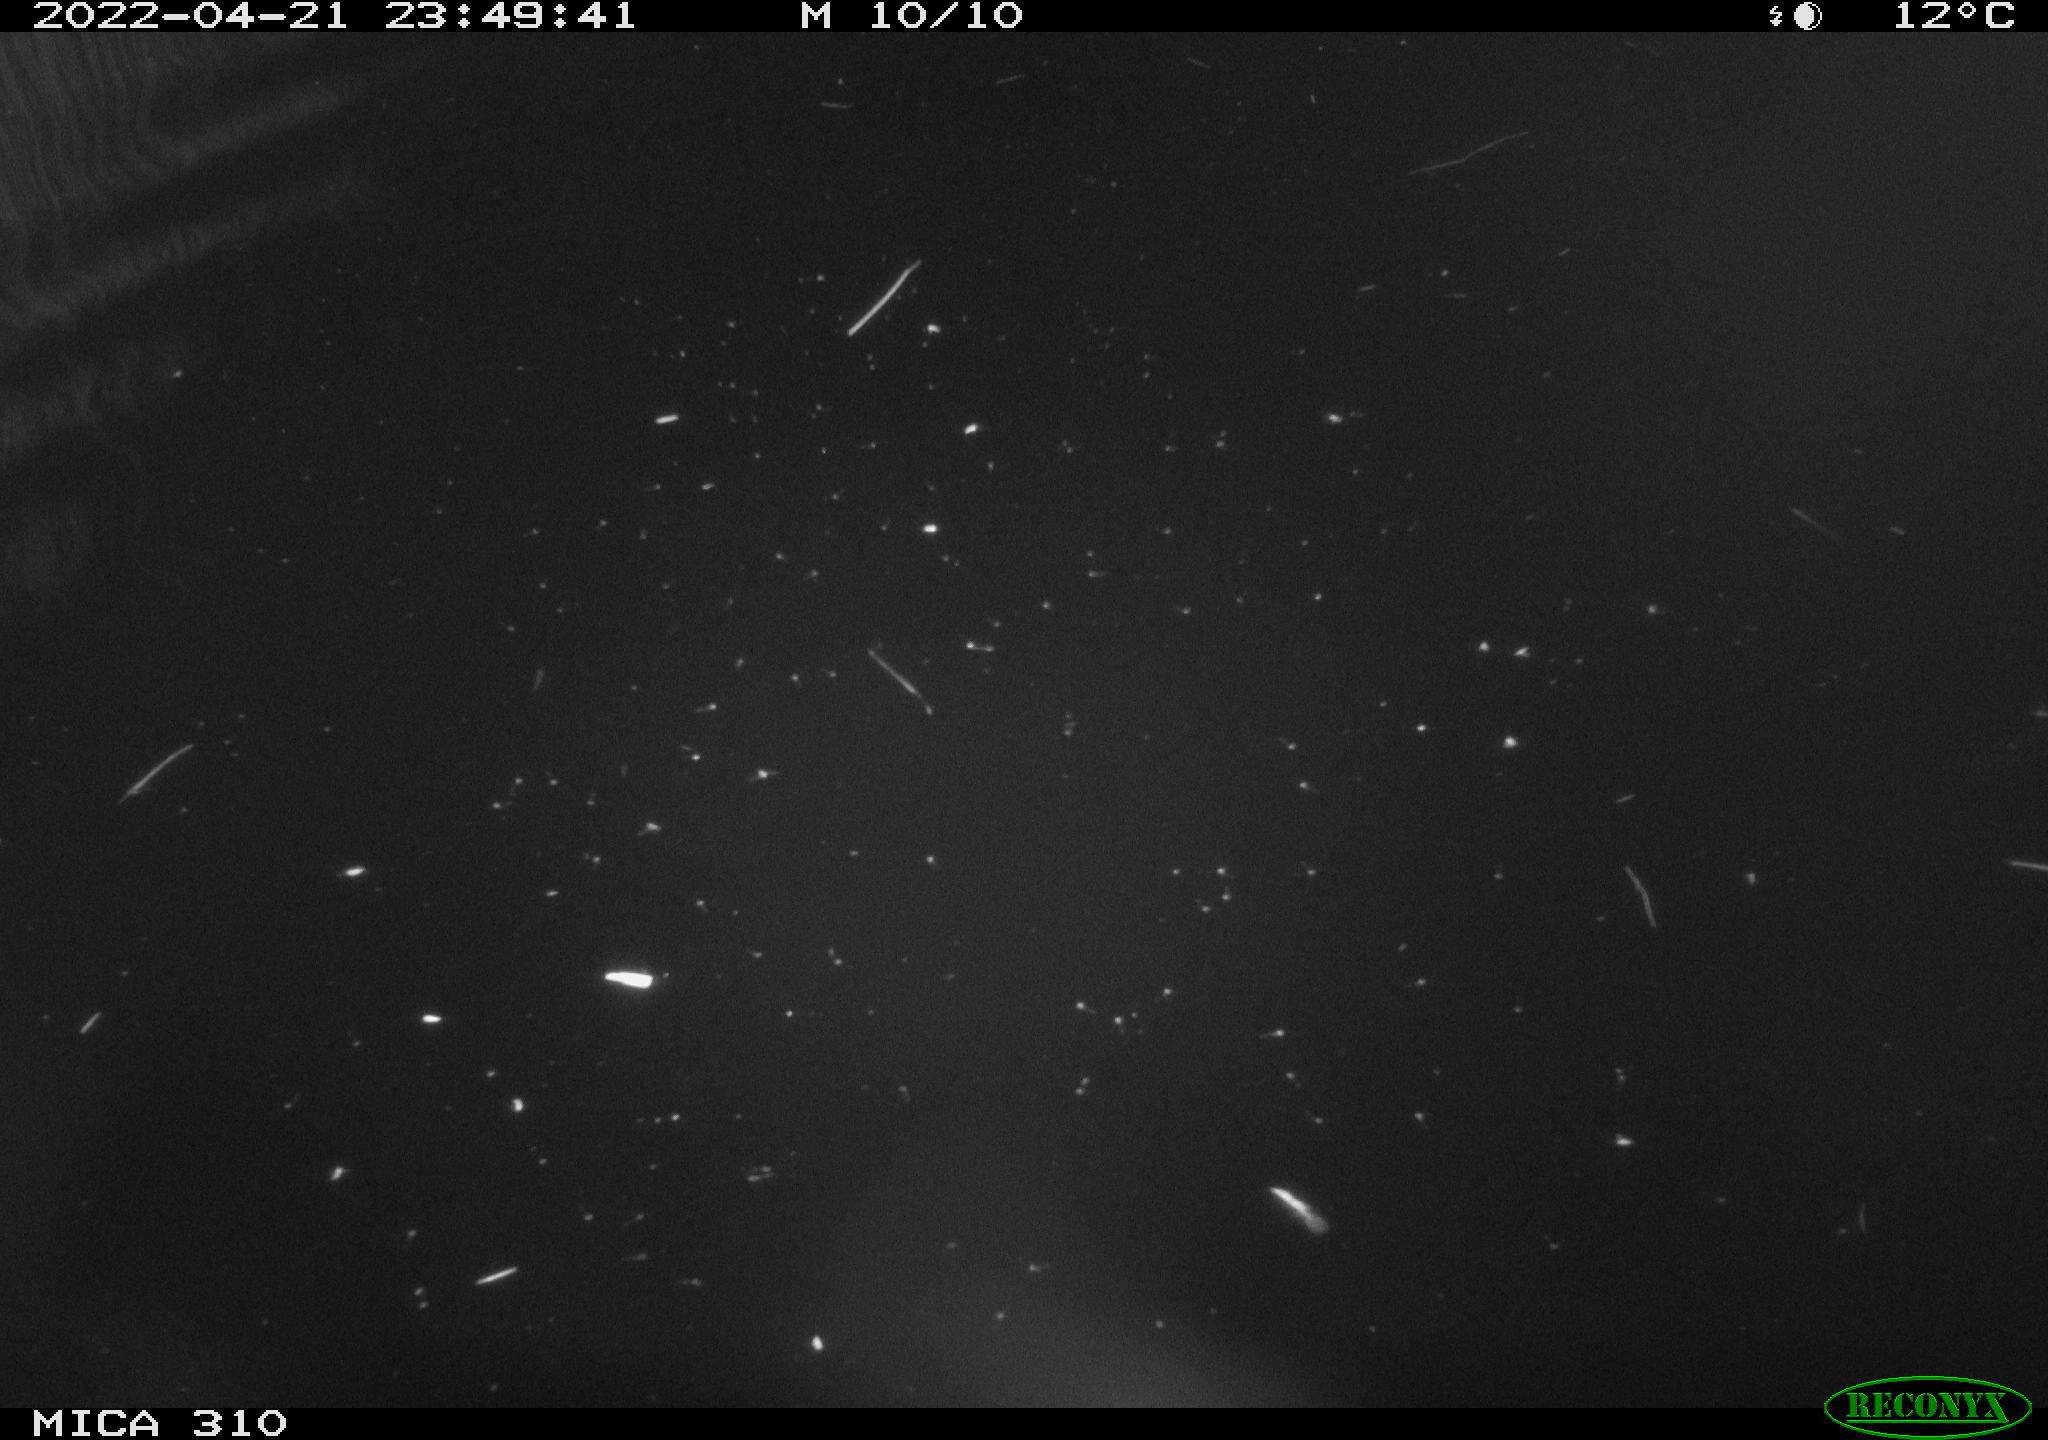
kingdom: Animalia
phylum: Chordata
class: Aves
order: Anseriformes
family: Anatidae
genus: Anas
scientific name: Anas platyrhynchos
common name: Mallard
